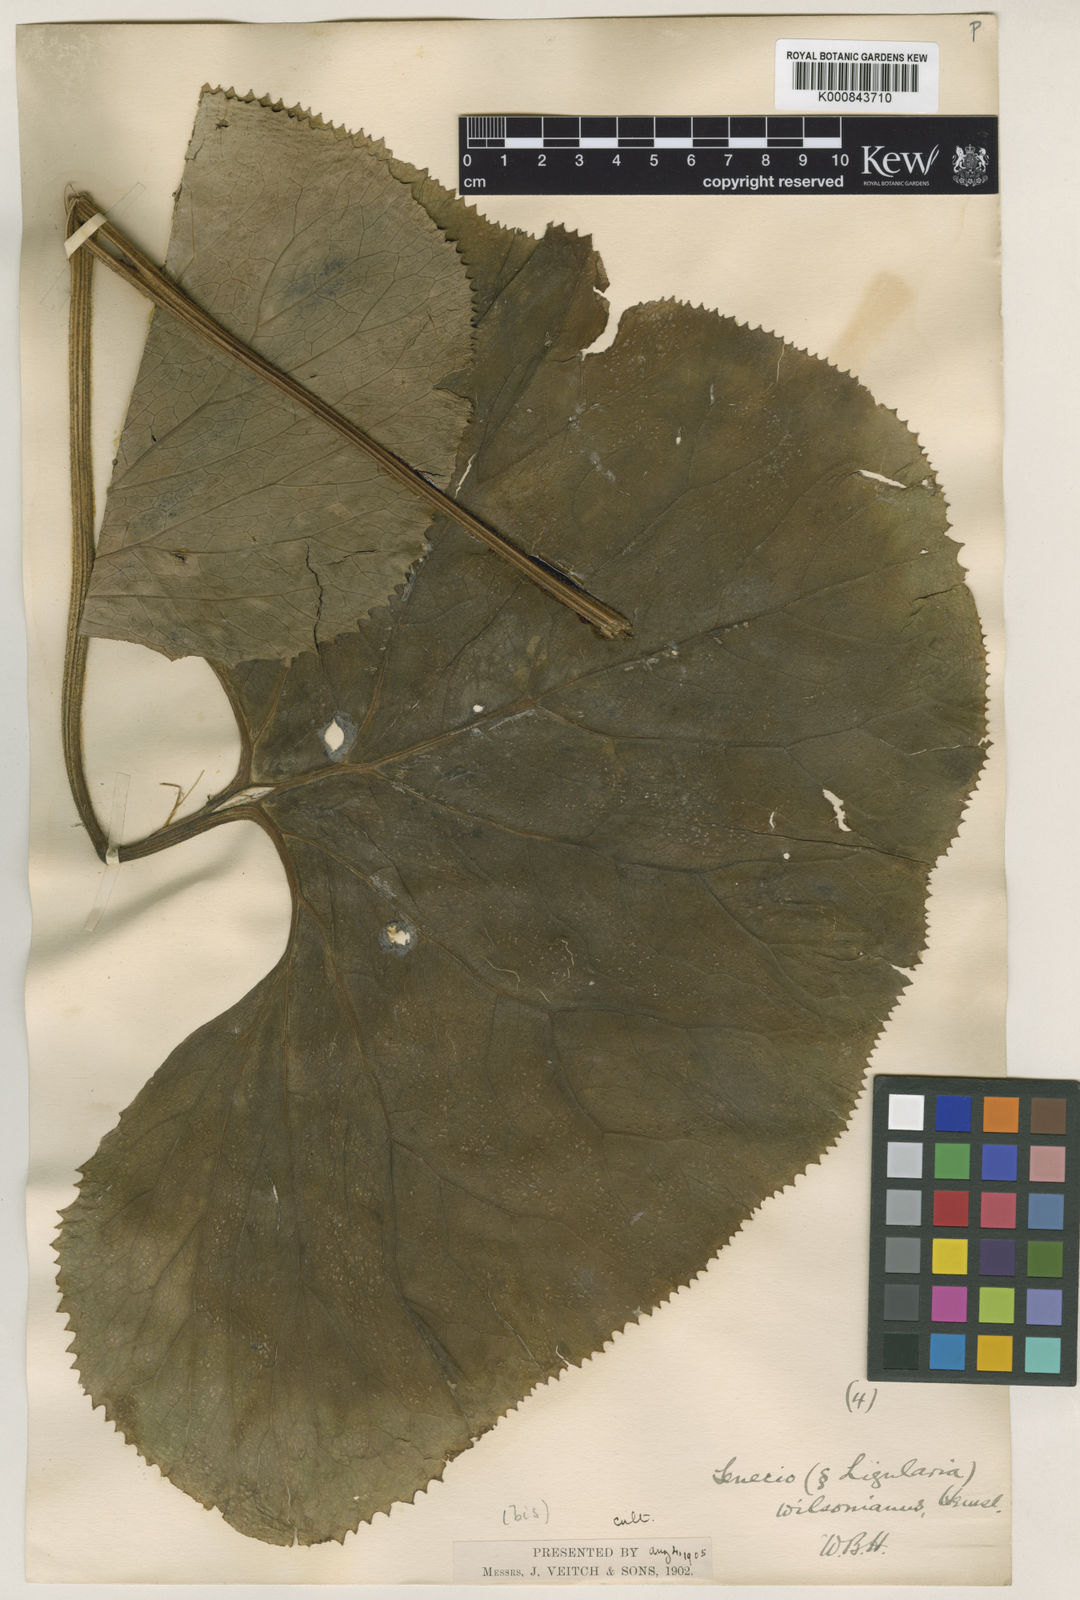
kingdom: Plantae
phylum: Tracheophyta
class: Magnoliopsida
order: Asterales
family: Asteraceae
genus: Ligularia
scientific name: Ligularia wilsoniana
